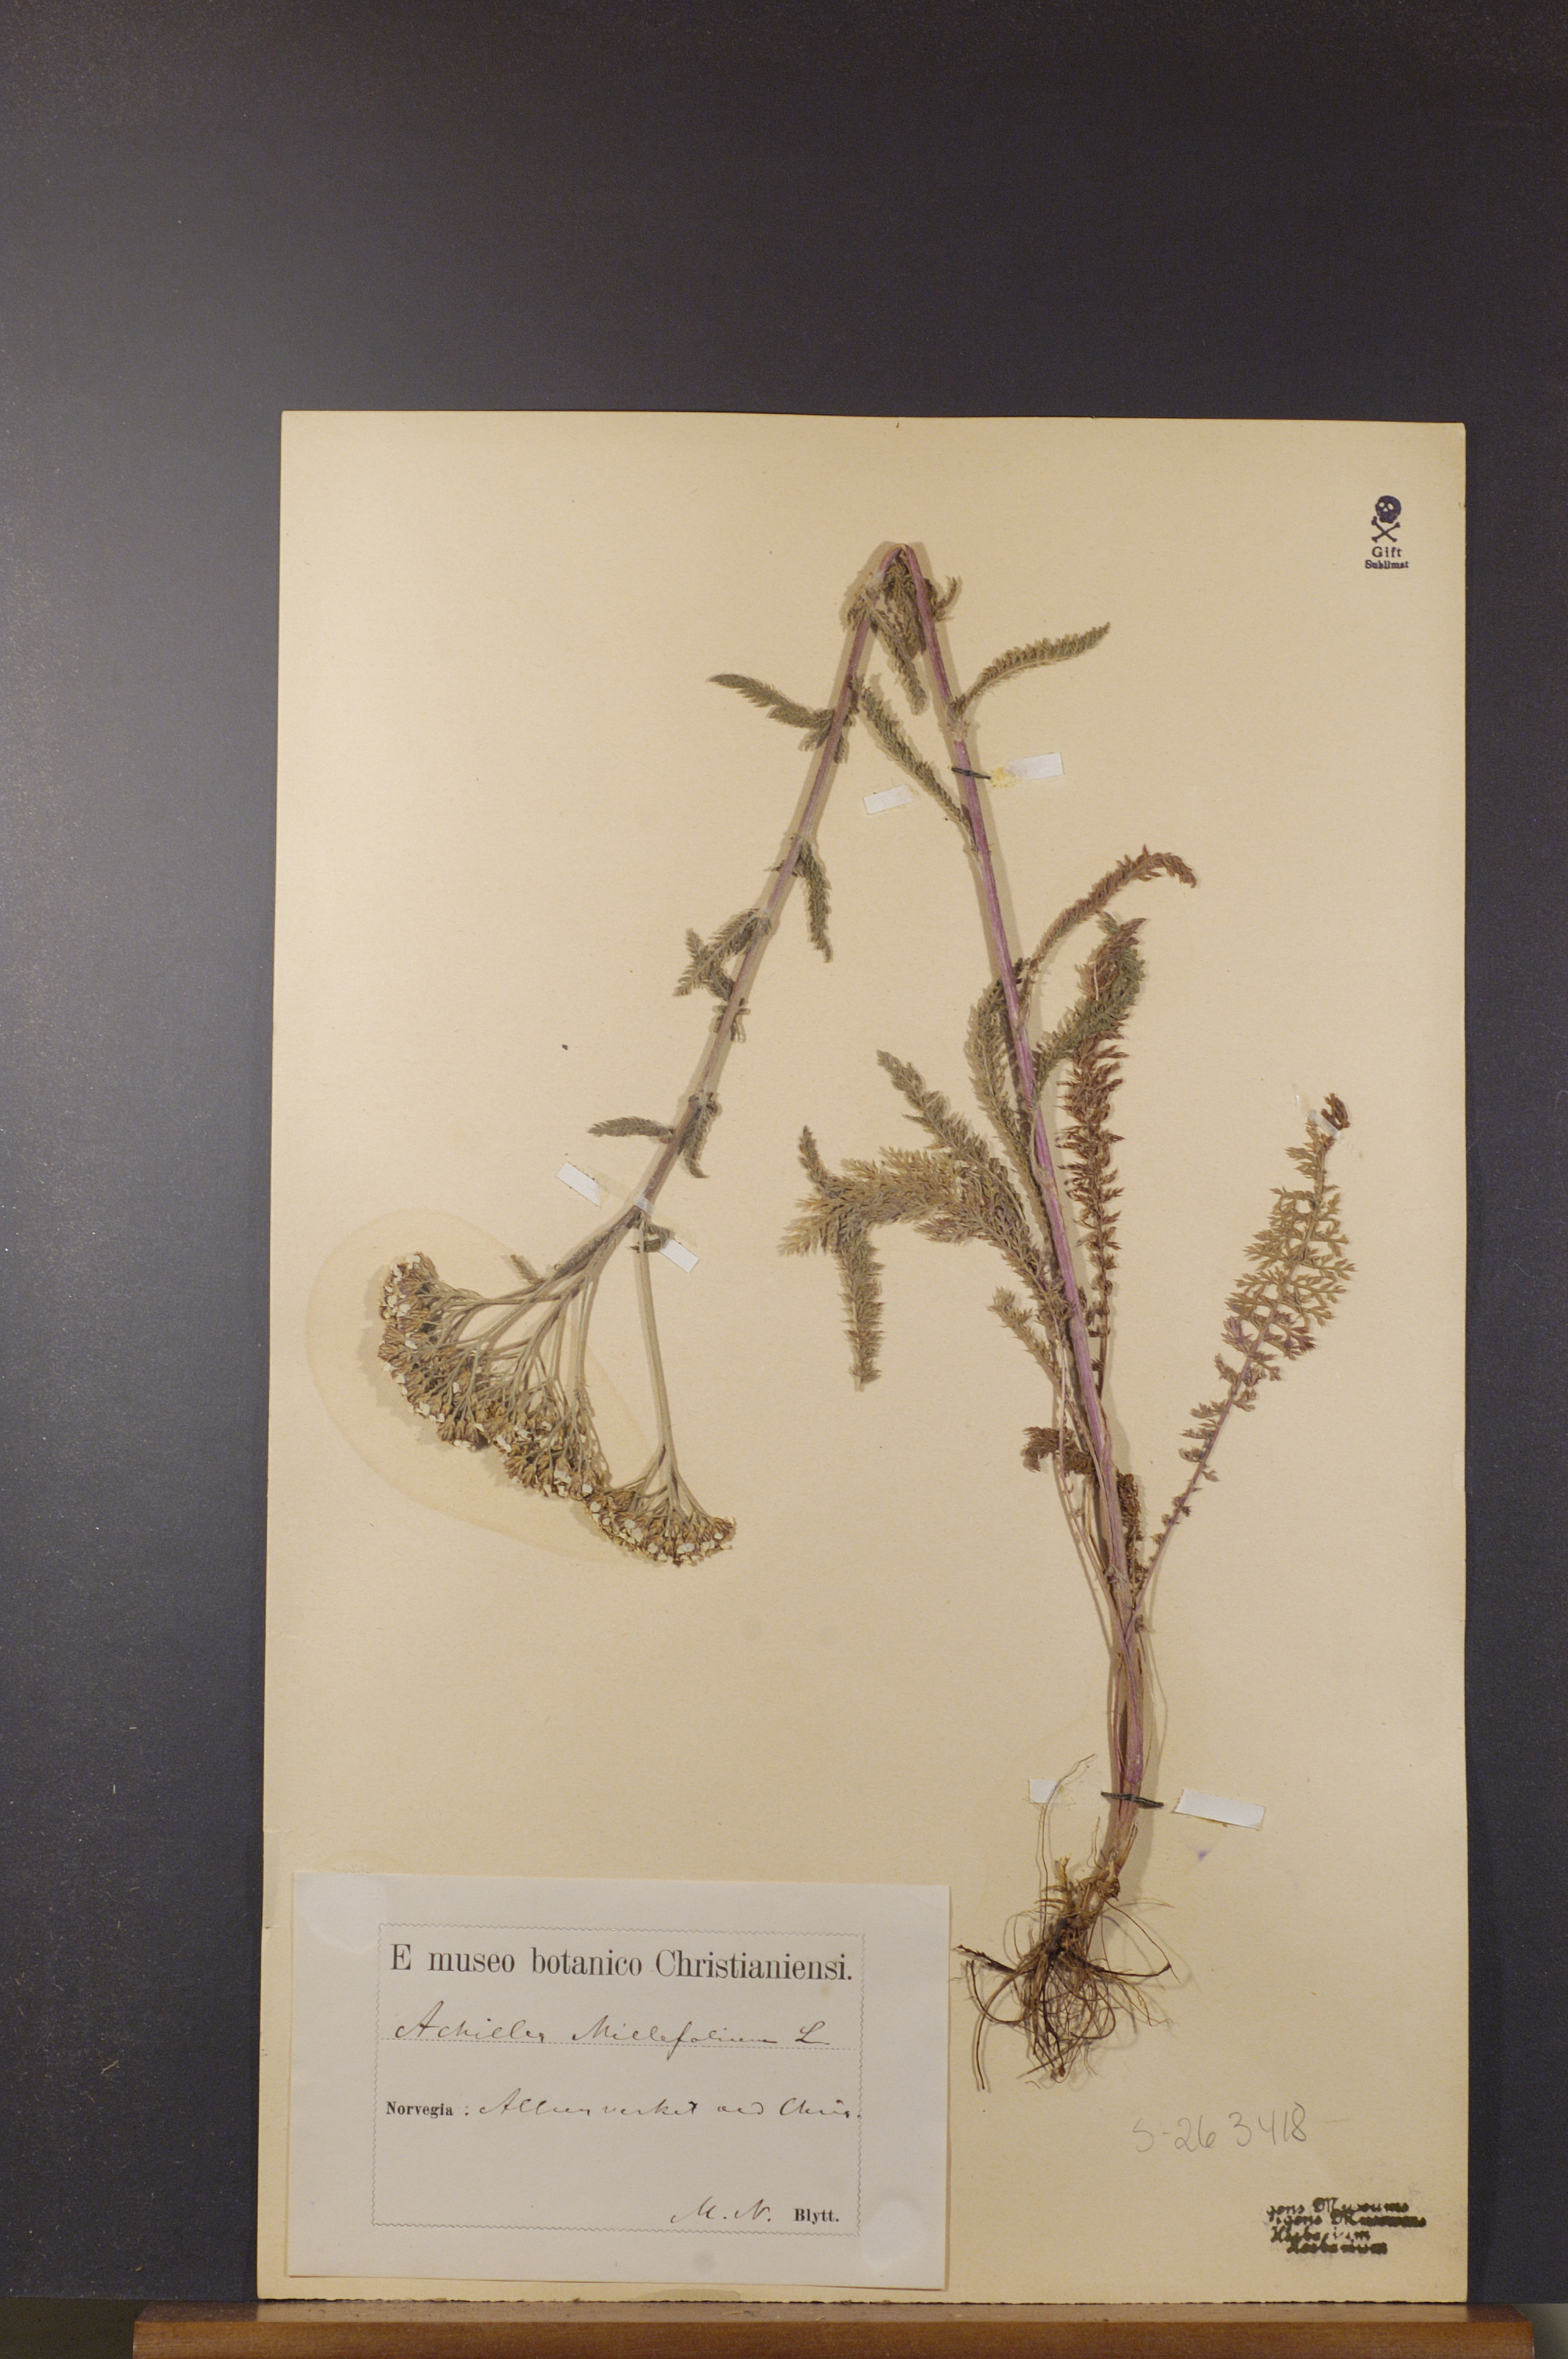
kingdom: Plantae
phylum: Tracheophyta
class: Magnoliopsida
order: Asterales
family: Asteraceae
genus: Achillea
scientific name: Achillea millefolium
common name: Yarrow
